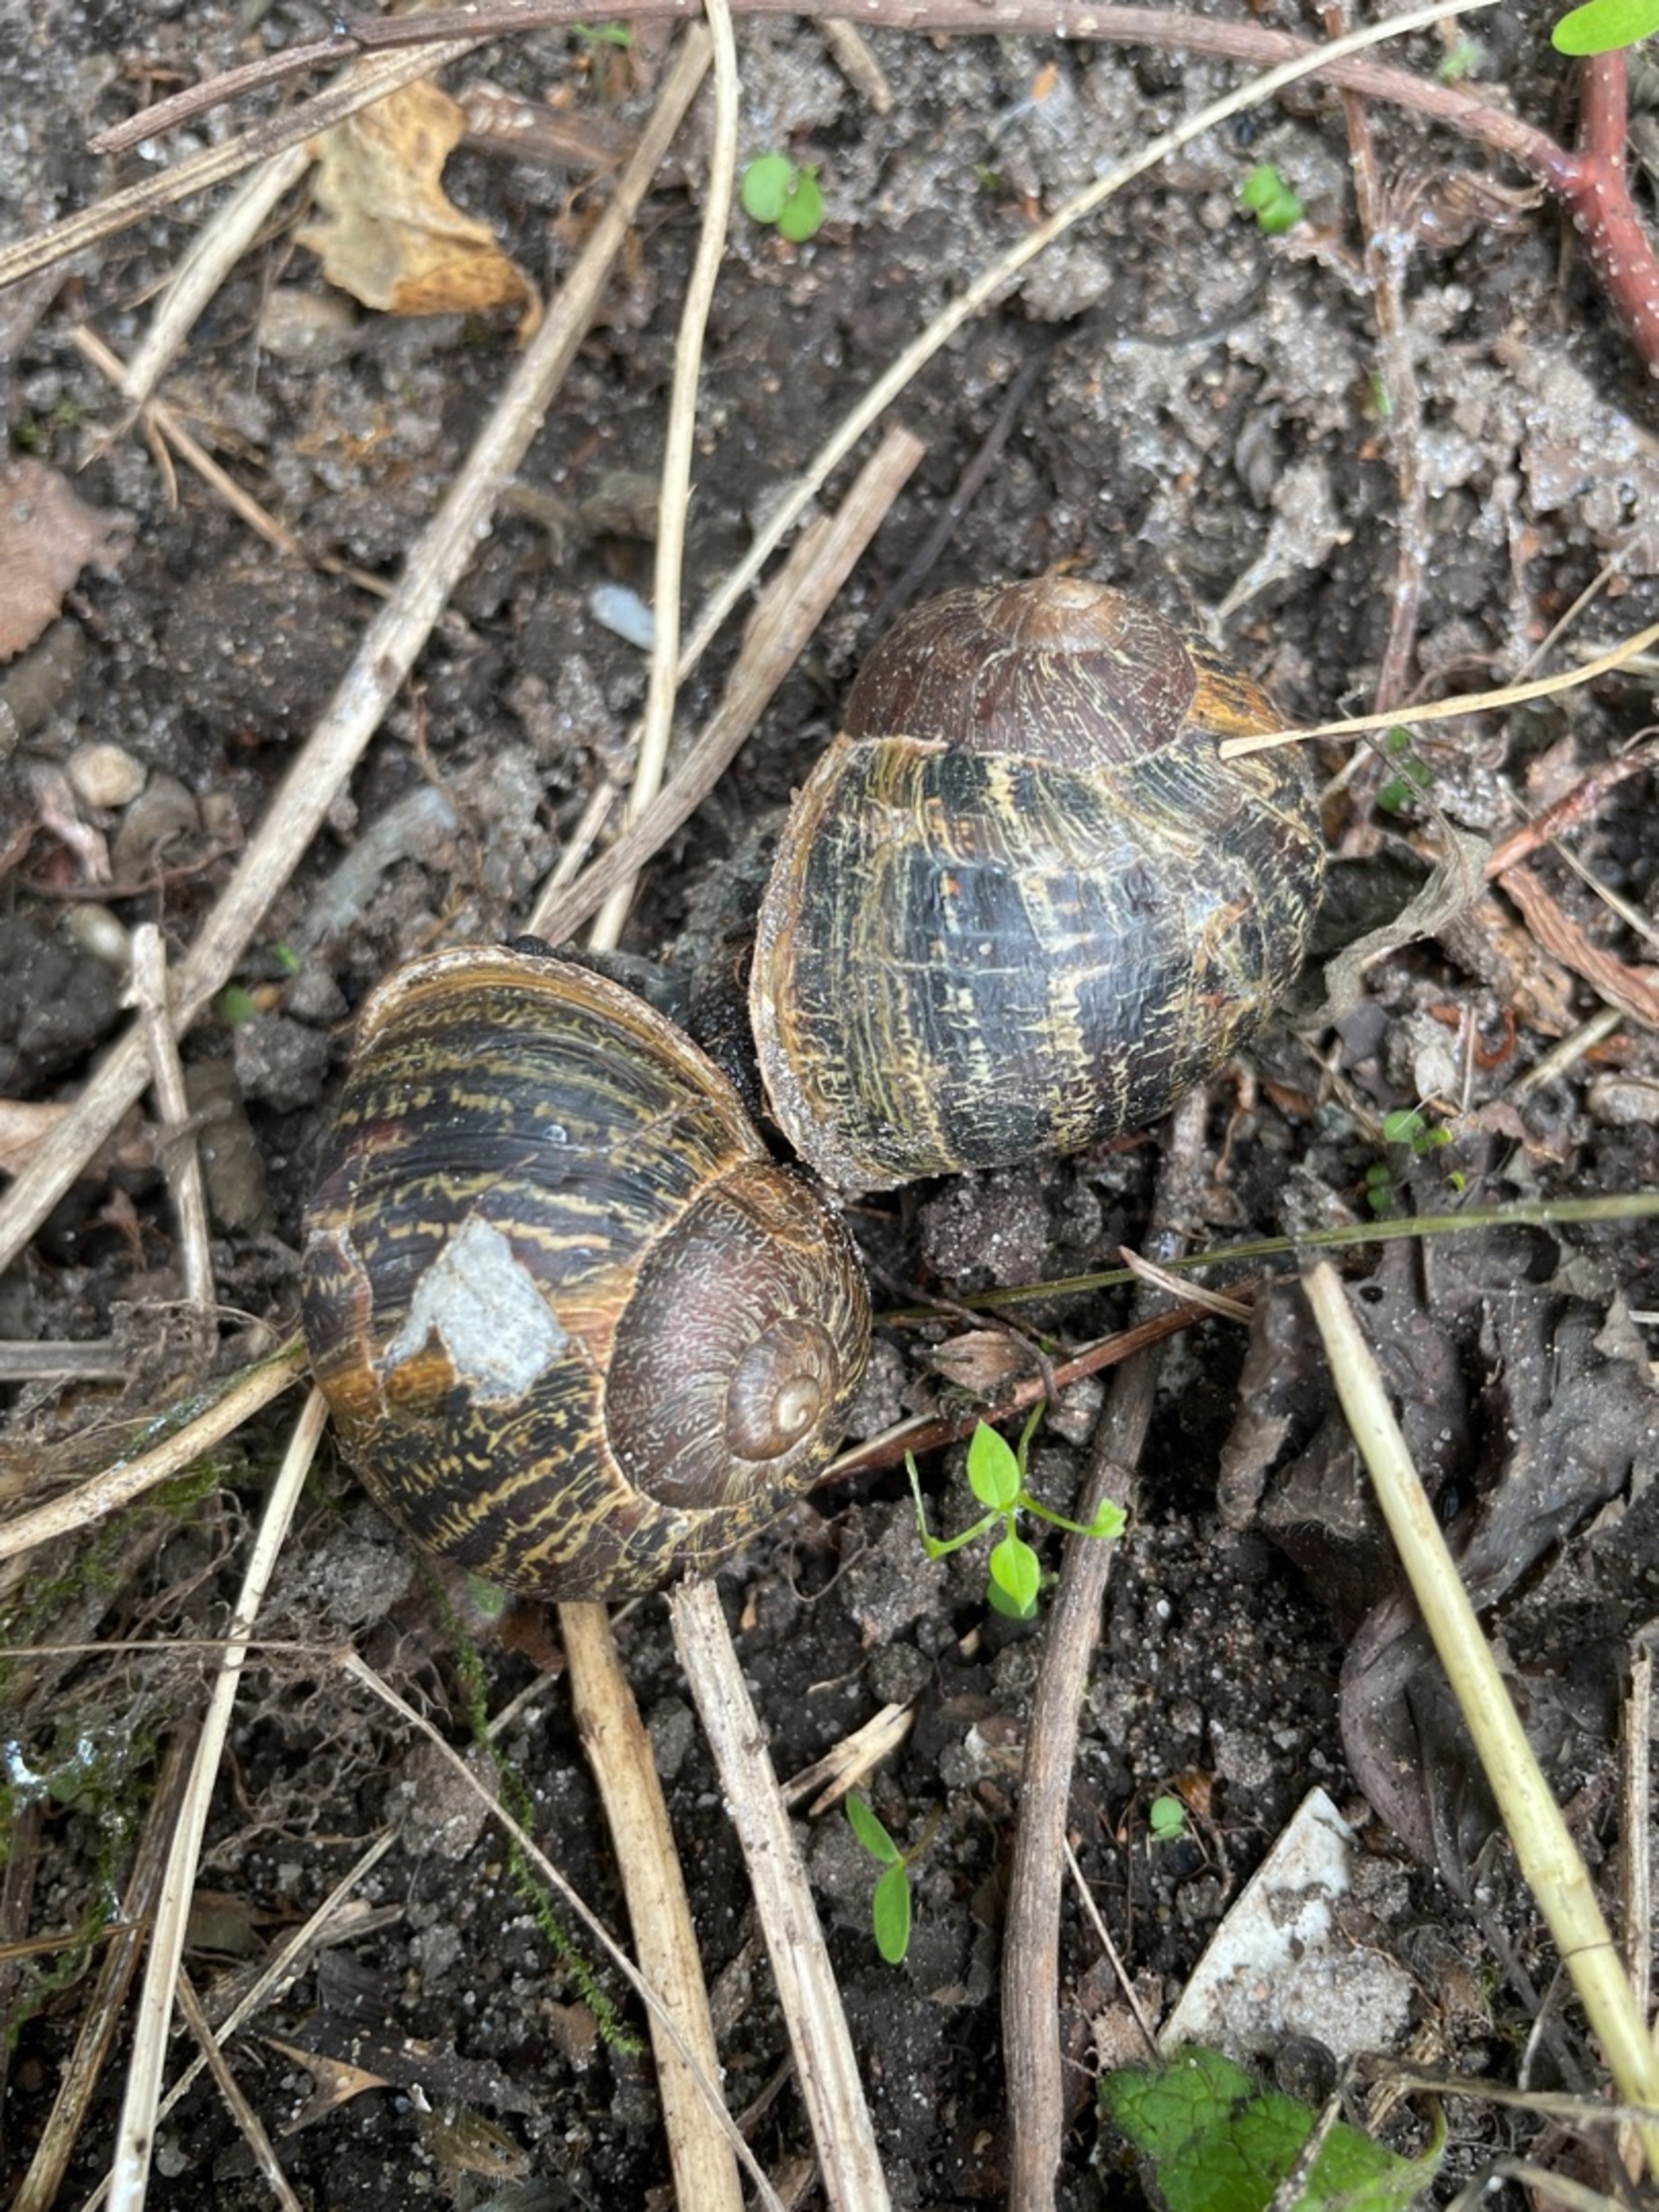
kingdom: Animalia
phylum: Mollusca
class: Gastropoda
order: Stylommatophora
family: Helicidae
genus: Cornu
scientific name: Cornu aspersum
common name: Plettet voldsnegl
